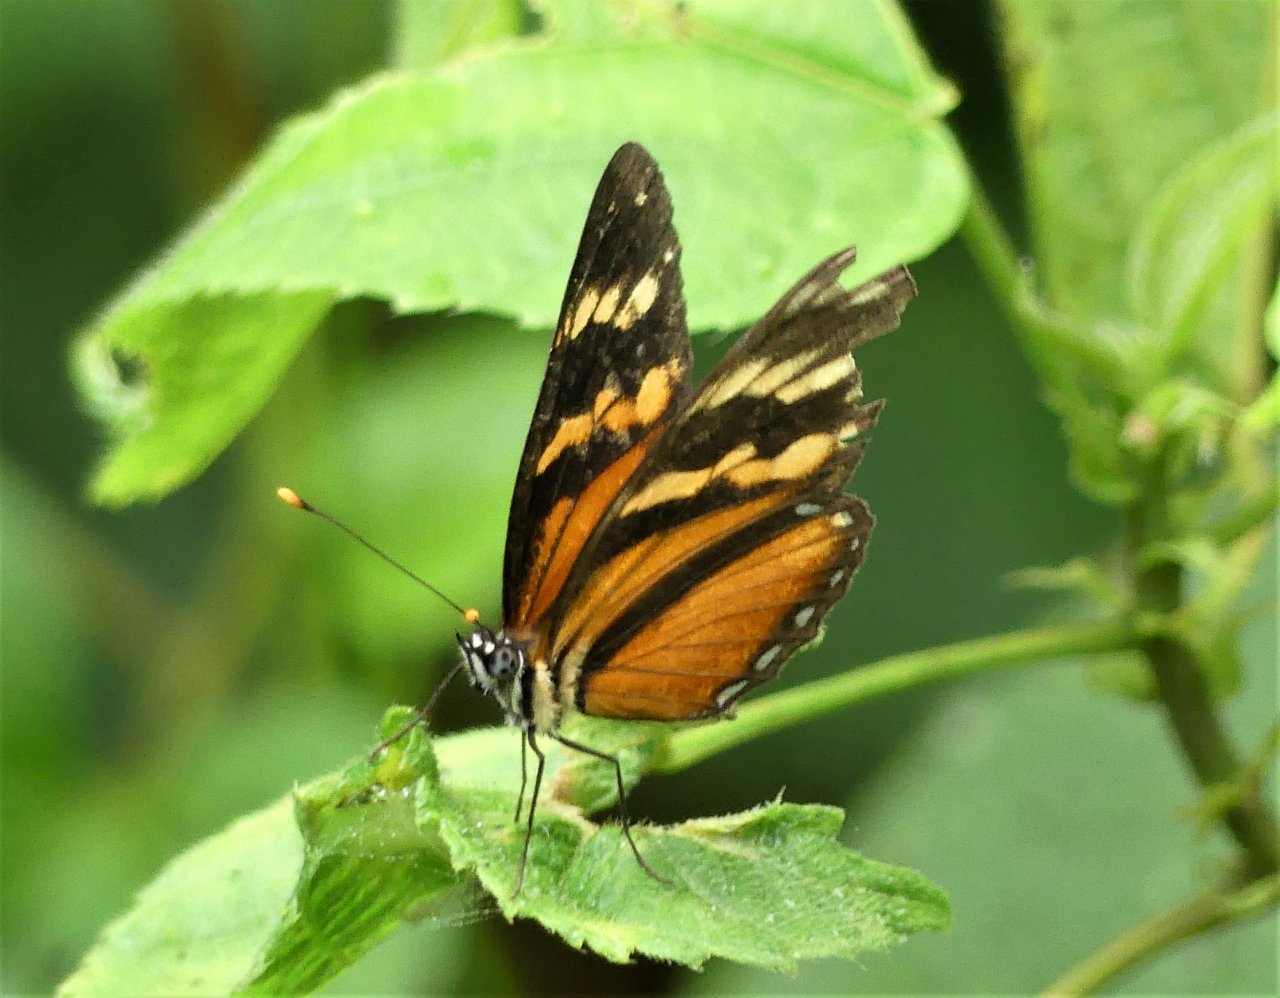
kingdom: Animalia
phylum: Arthropoda
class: Insecta
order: Lepidoptera
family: Nymphalidae
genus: Eresia
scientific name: Eresia ithomioides
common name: Variable Crescent
